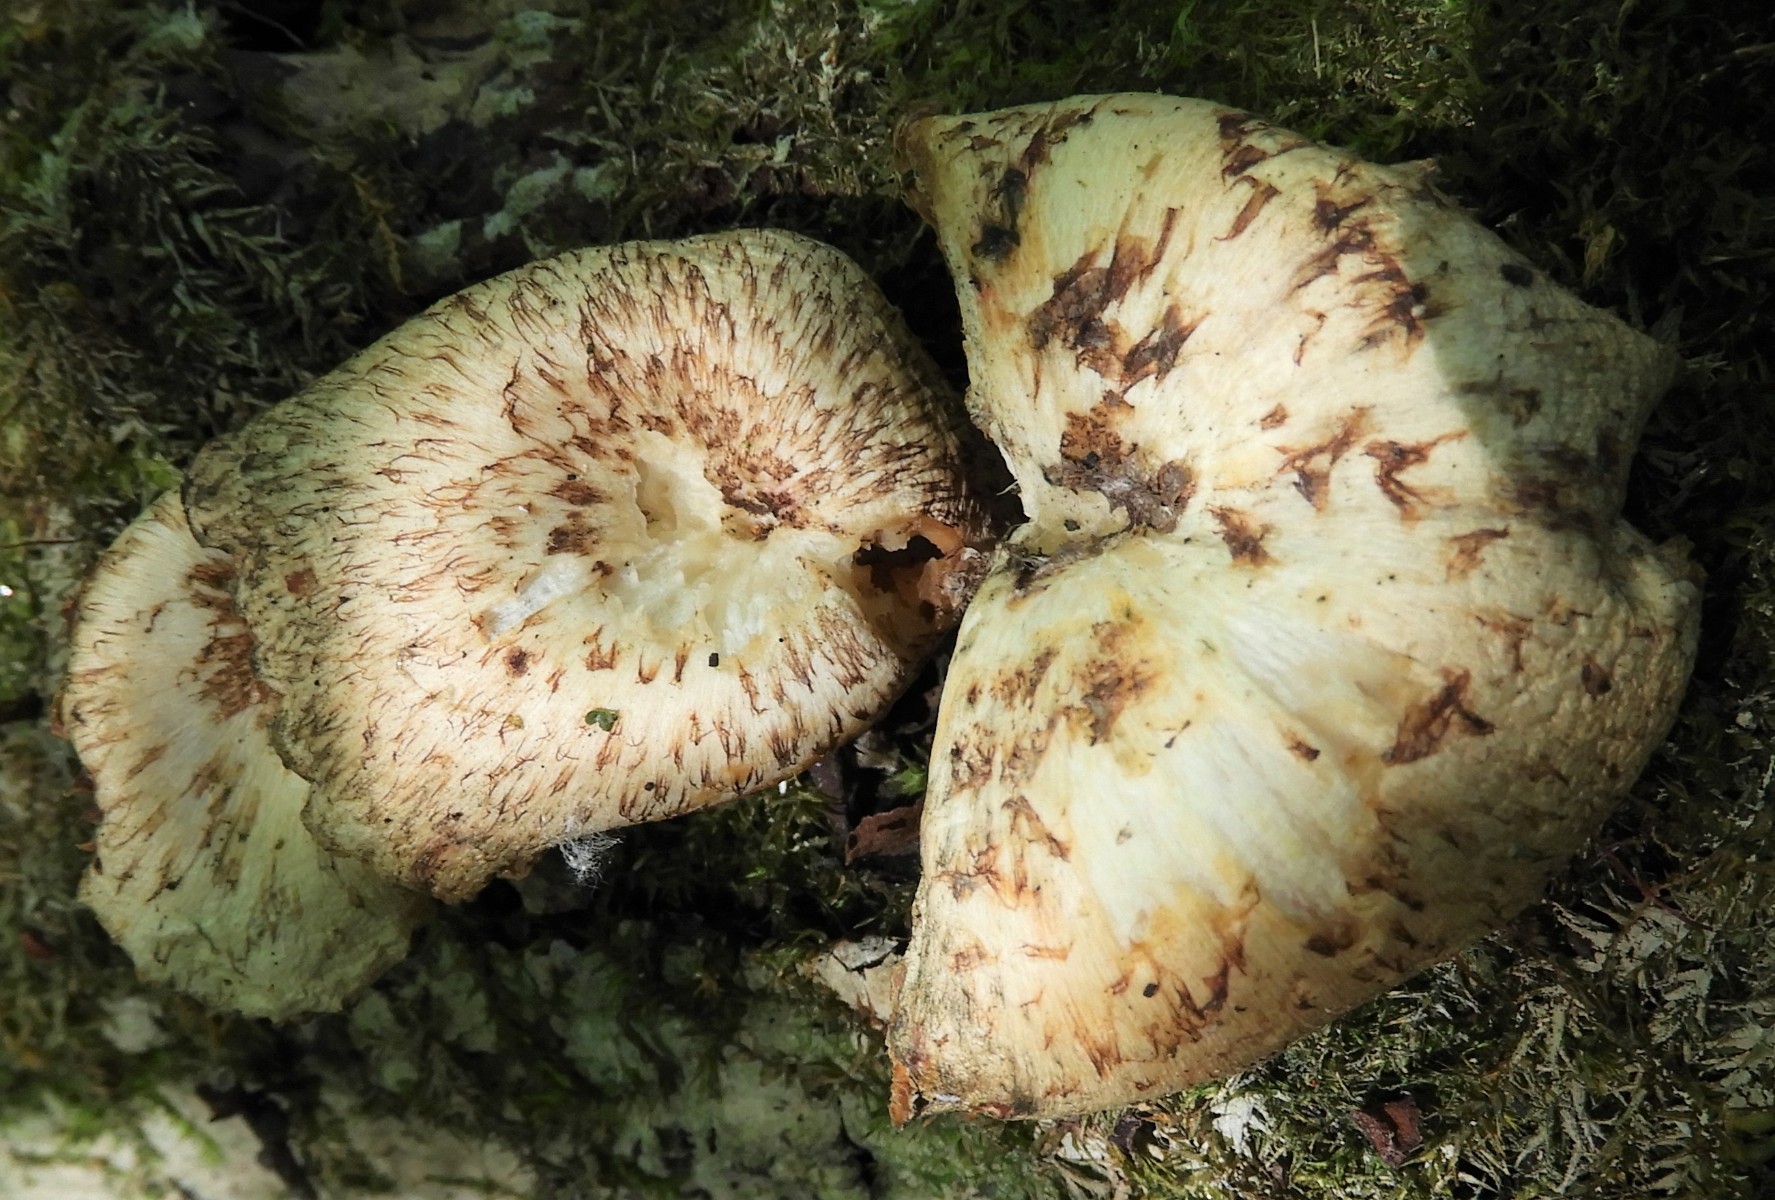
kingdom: Fungi
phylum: Basidiomycota
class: Agaricomycetes
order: Polyporales
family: Polyporaceae
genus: Lentinus
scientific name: Lentinus tigrinus
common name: tigerhat
